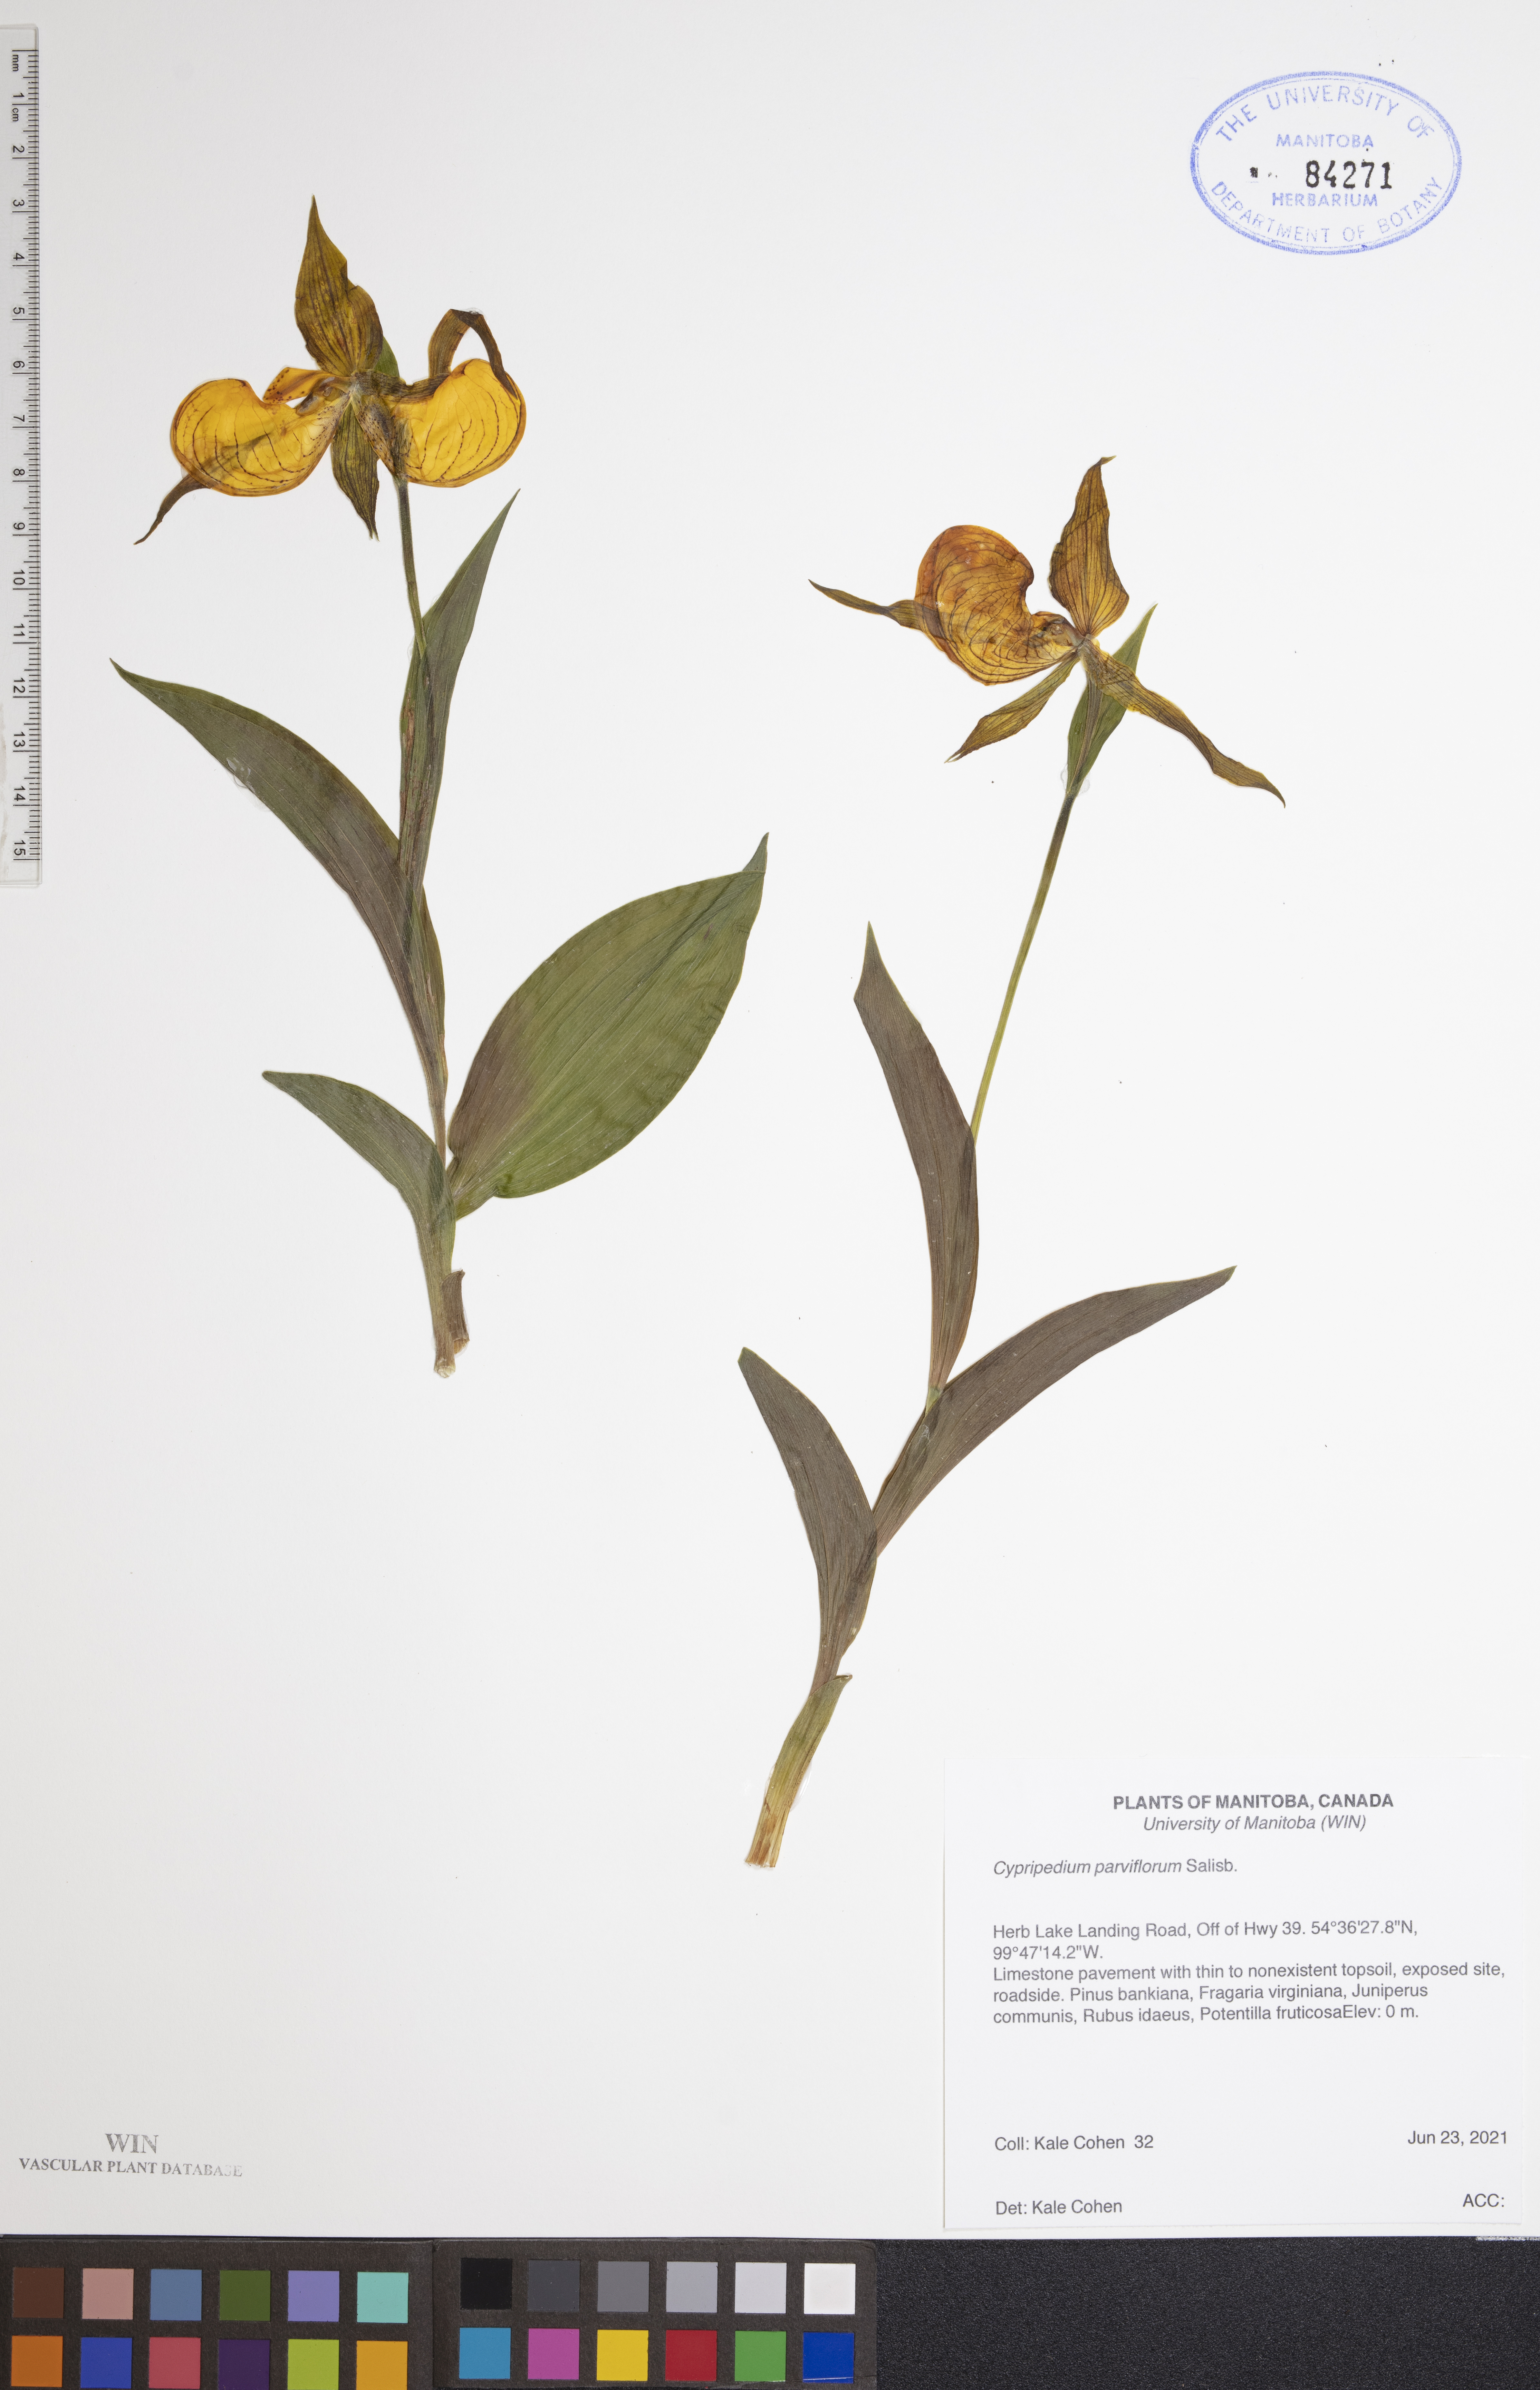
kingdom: Plantae
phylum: Tracheophyta
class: Liliopsida
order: Asparagales
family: Orchidaceae
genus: Cypripedium
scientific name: Cypripedium parviflorum
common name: American yellow lady's-slipper
